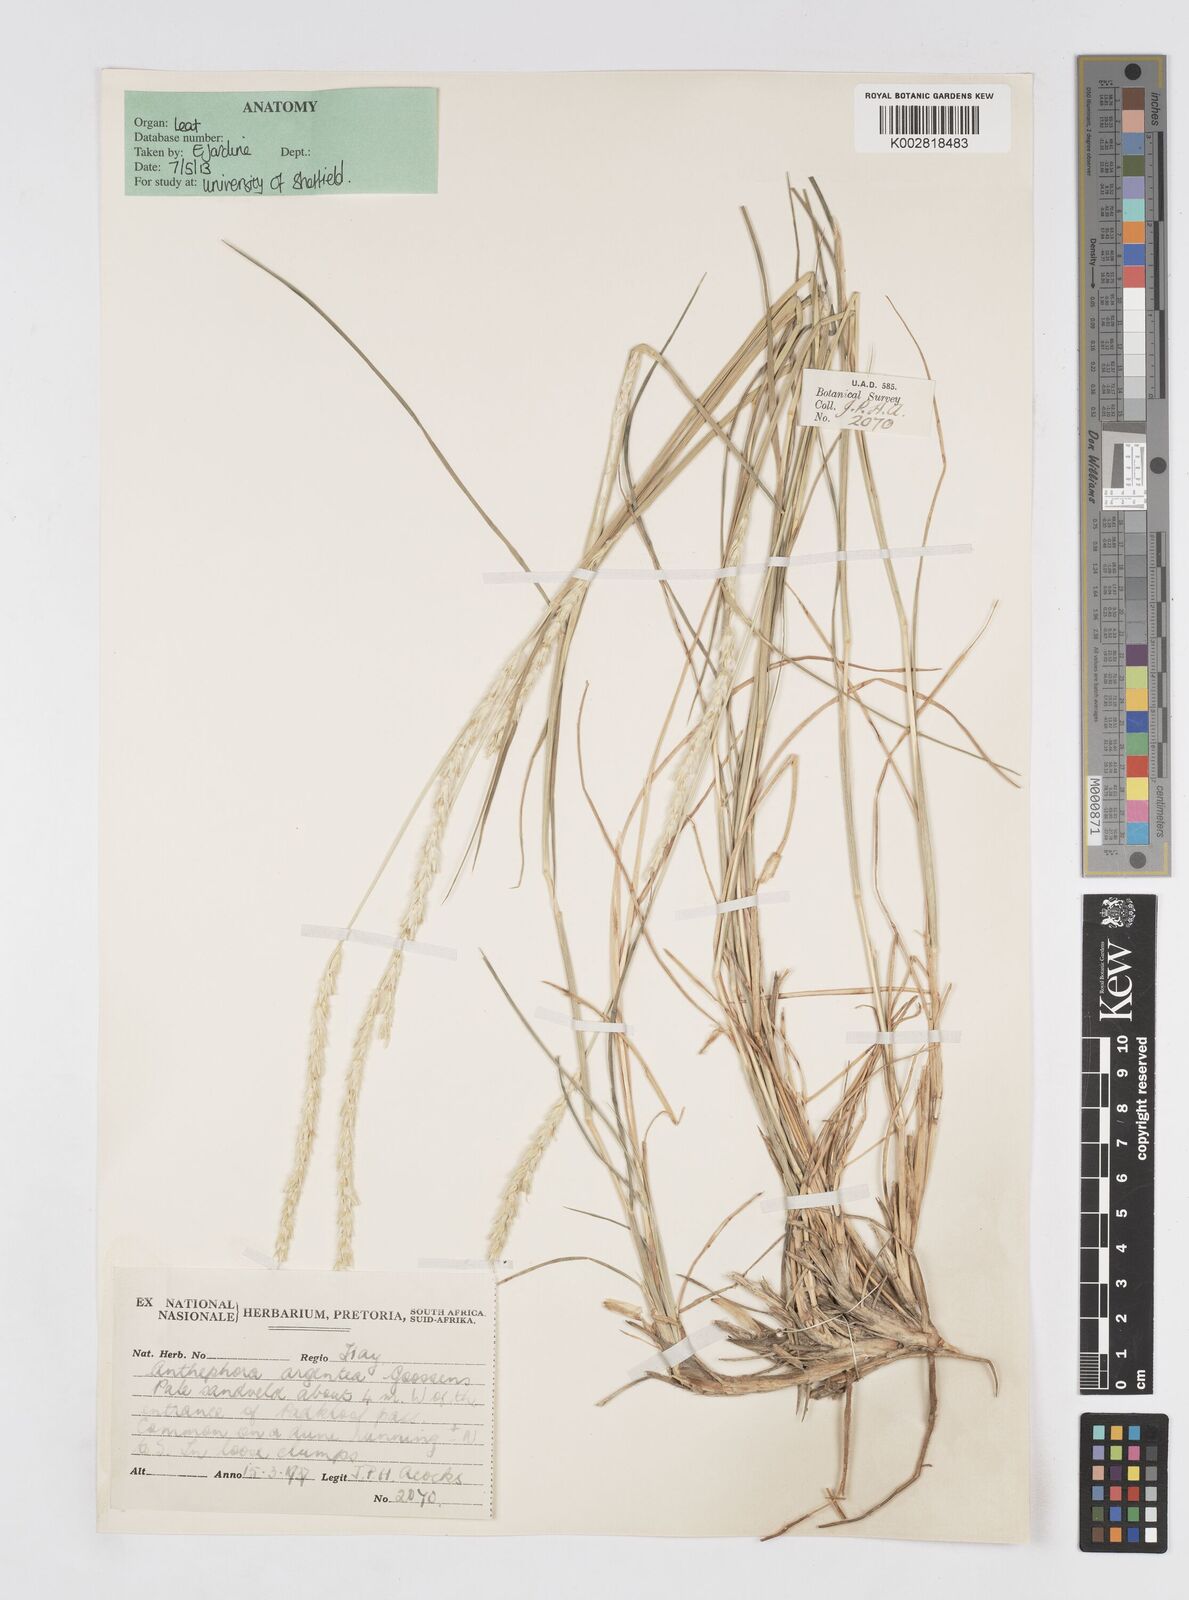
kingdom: Plantae
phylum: Tracheophyta
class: Liliopsida
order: Poales
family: Poaceae
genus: Anthephora
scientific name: Anthephora argentea
